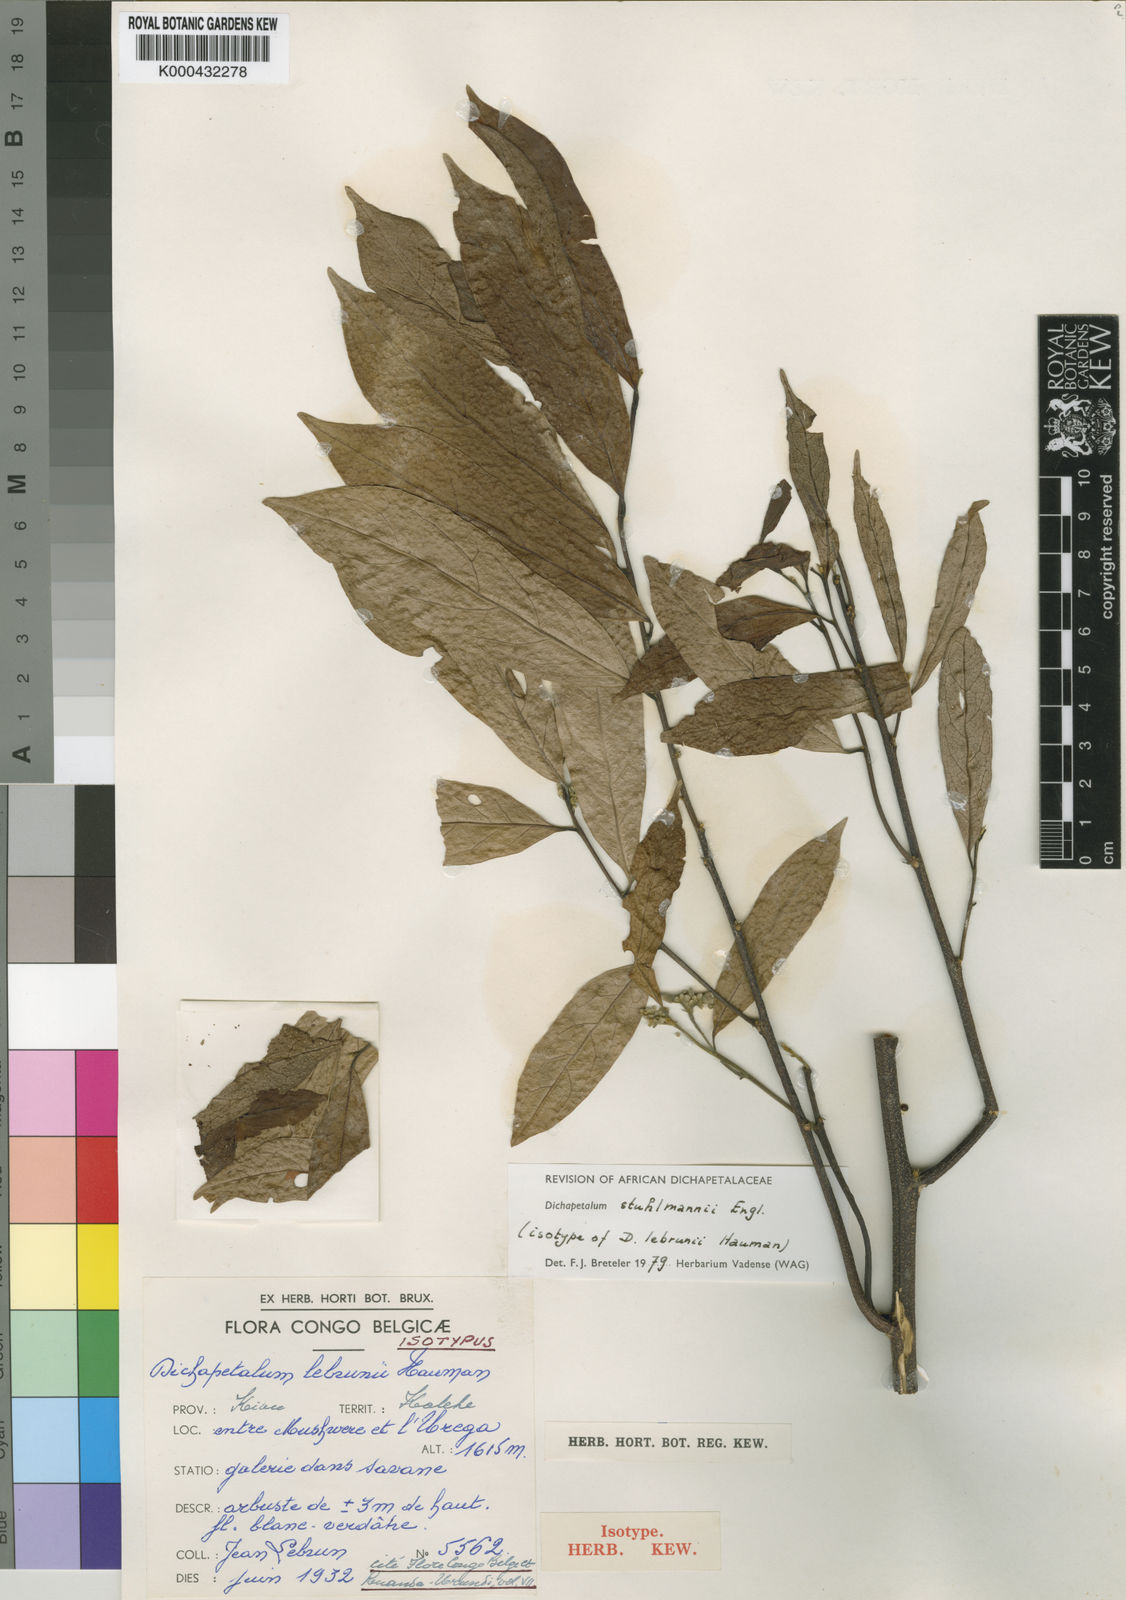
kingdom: Plantae
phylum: Tracheophyta
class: Magnoliopsida
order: Malpighiales
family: Dichapetalaceae
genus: Dichapetalum
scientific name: Dichapetalum stuhlmannii
